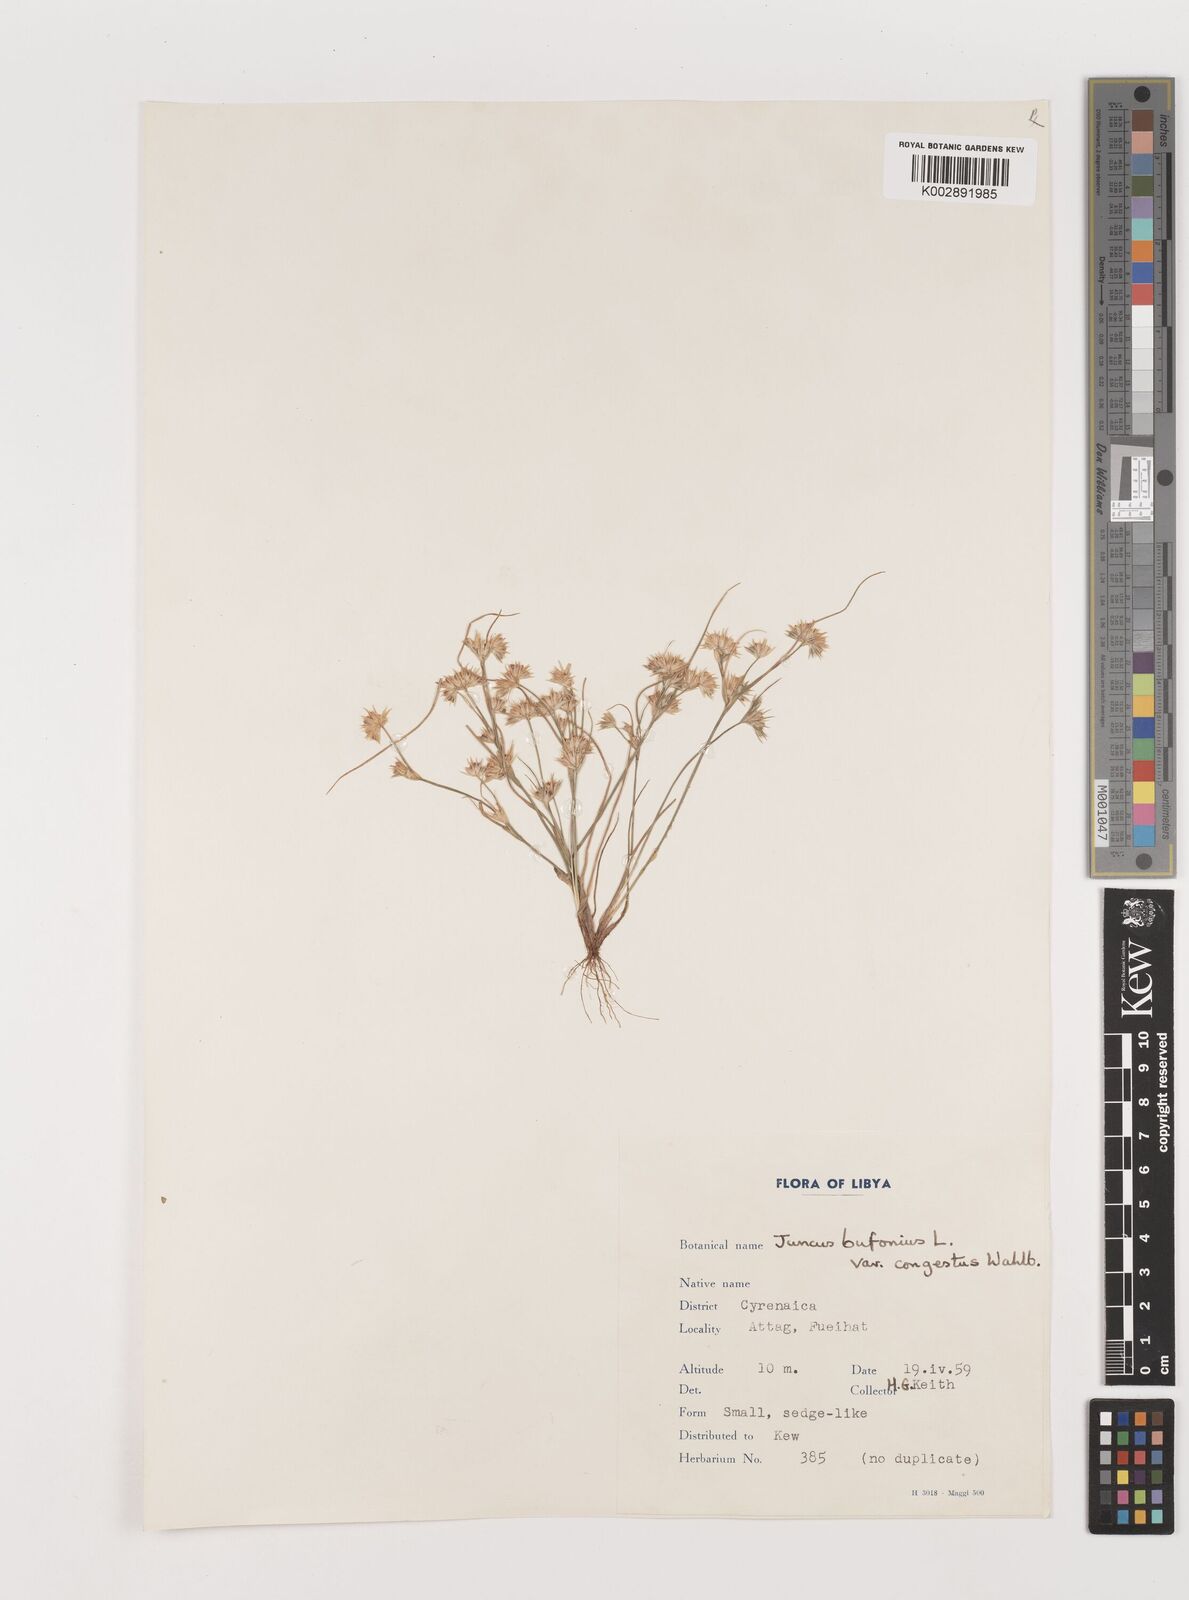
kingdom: Plantae
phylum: Tracheophyta
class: Liliopsida
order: Poales
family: Juncaceae
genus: Juncus
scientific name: Juncus bufonius
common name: Toad rush
